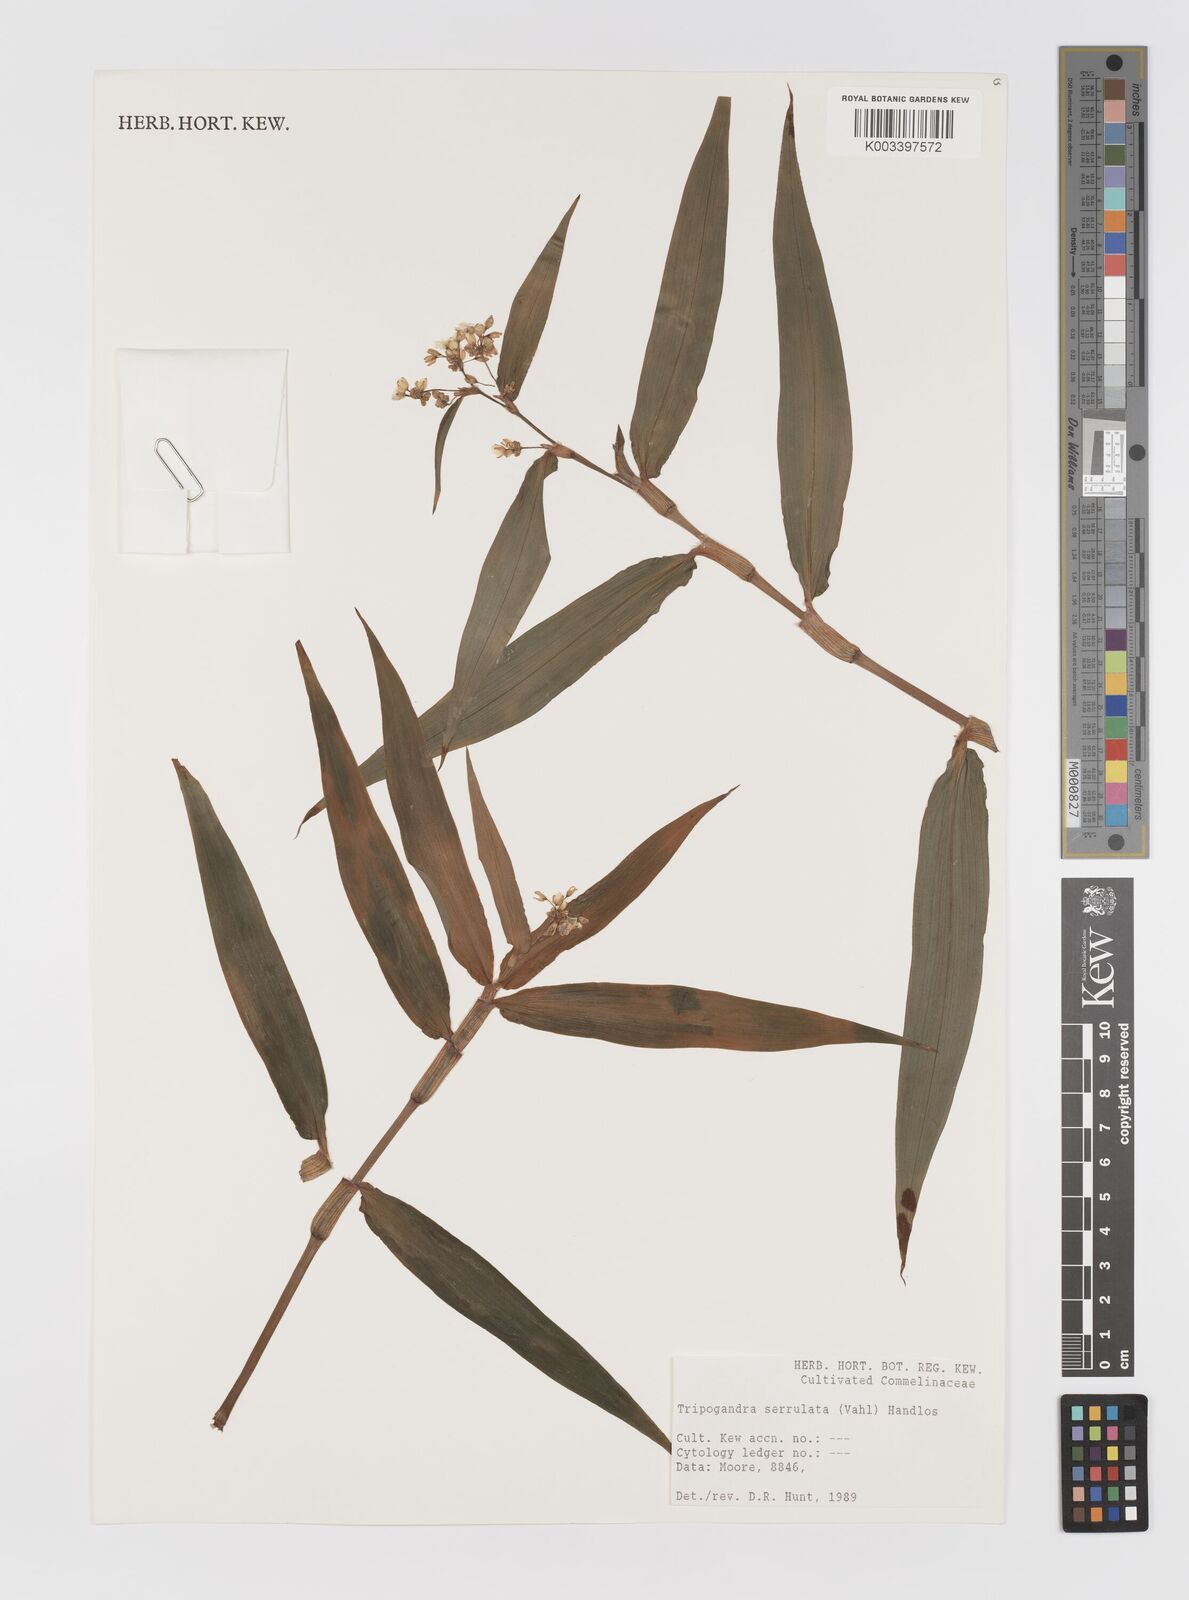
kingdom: Plantae
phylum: Tracheophyta
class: Liliopsida
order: Commelinales
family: Commelinaceae
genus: Callisia
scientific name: Callisia serrulata
